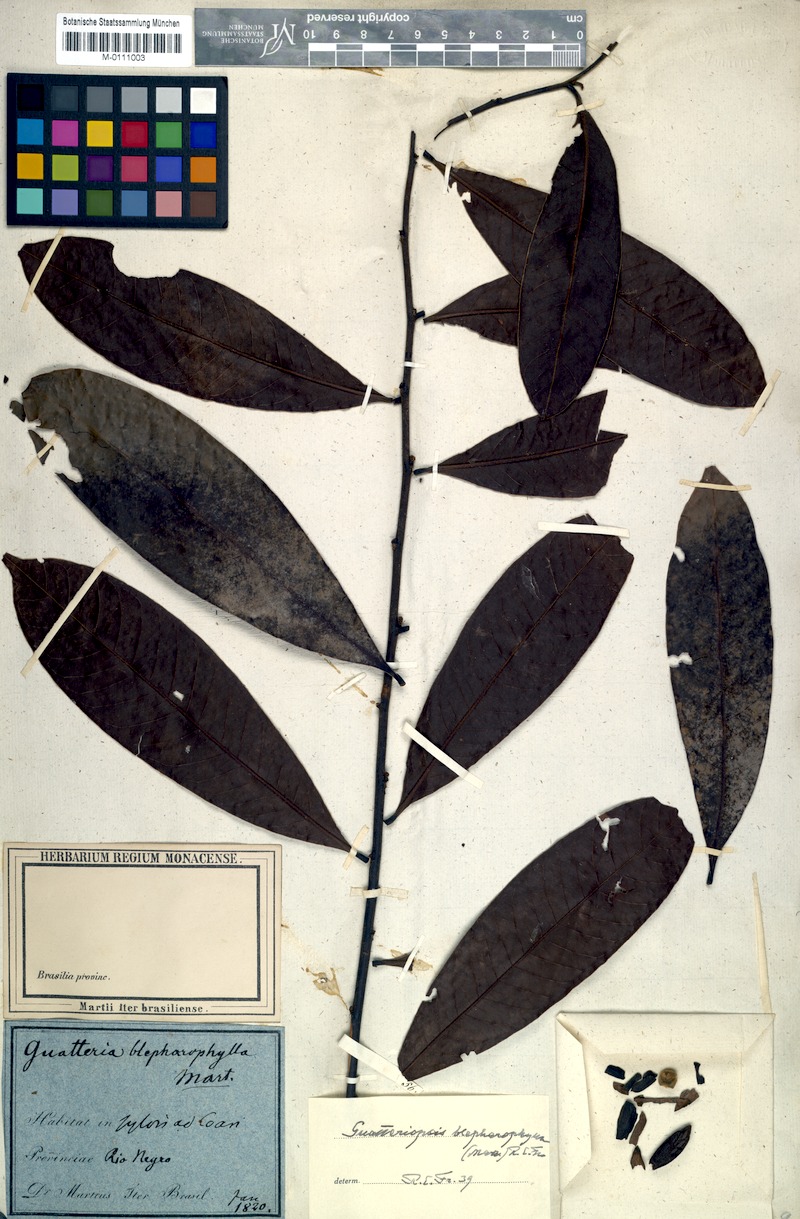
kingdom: Plantae
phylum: Tracheophyta
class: Magnoliopsida
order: Magnoliales
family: Annonaceae
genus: Guatteria
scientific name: Guatteria blepharophylla
